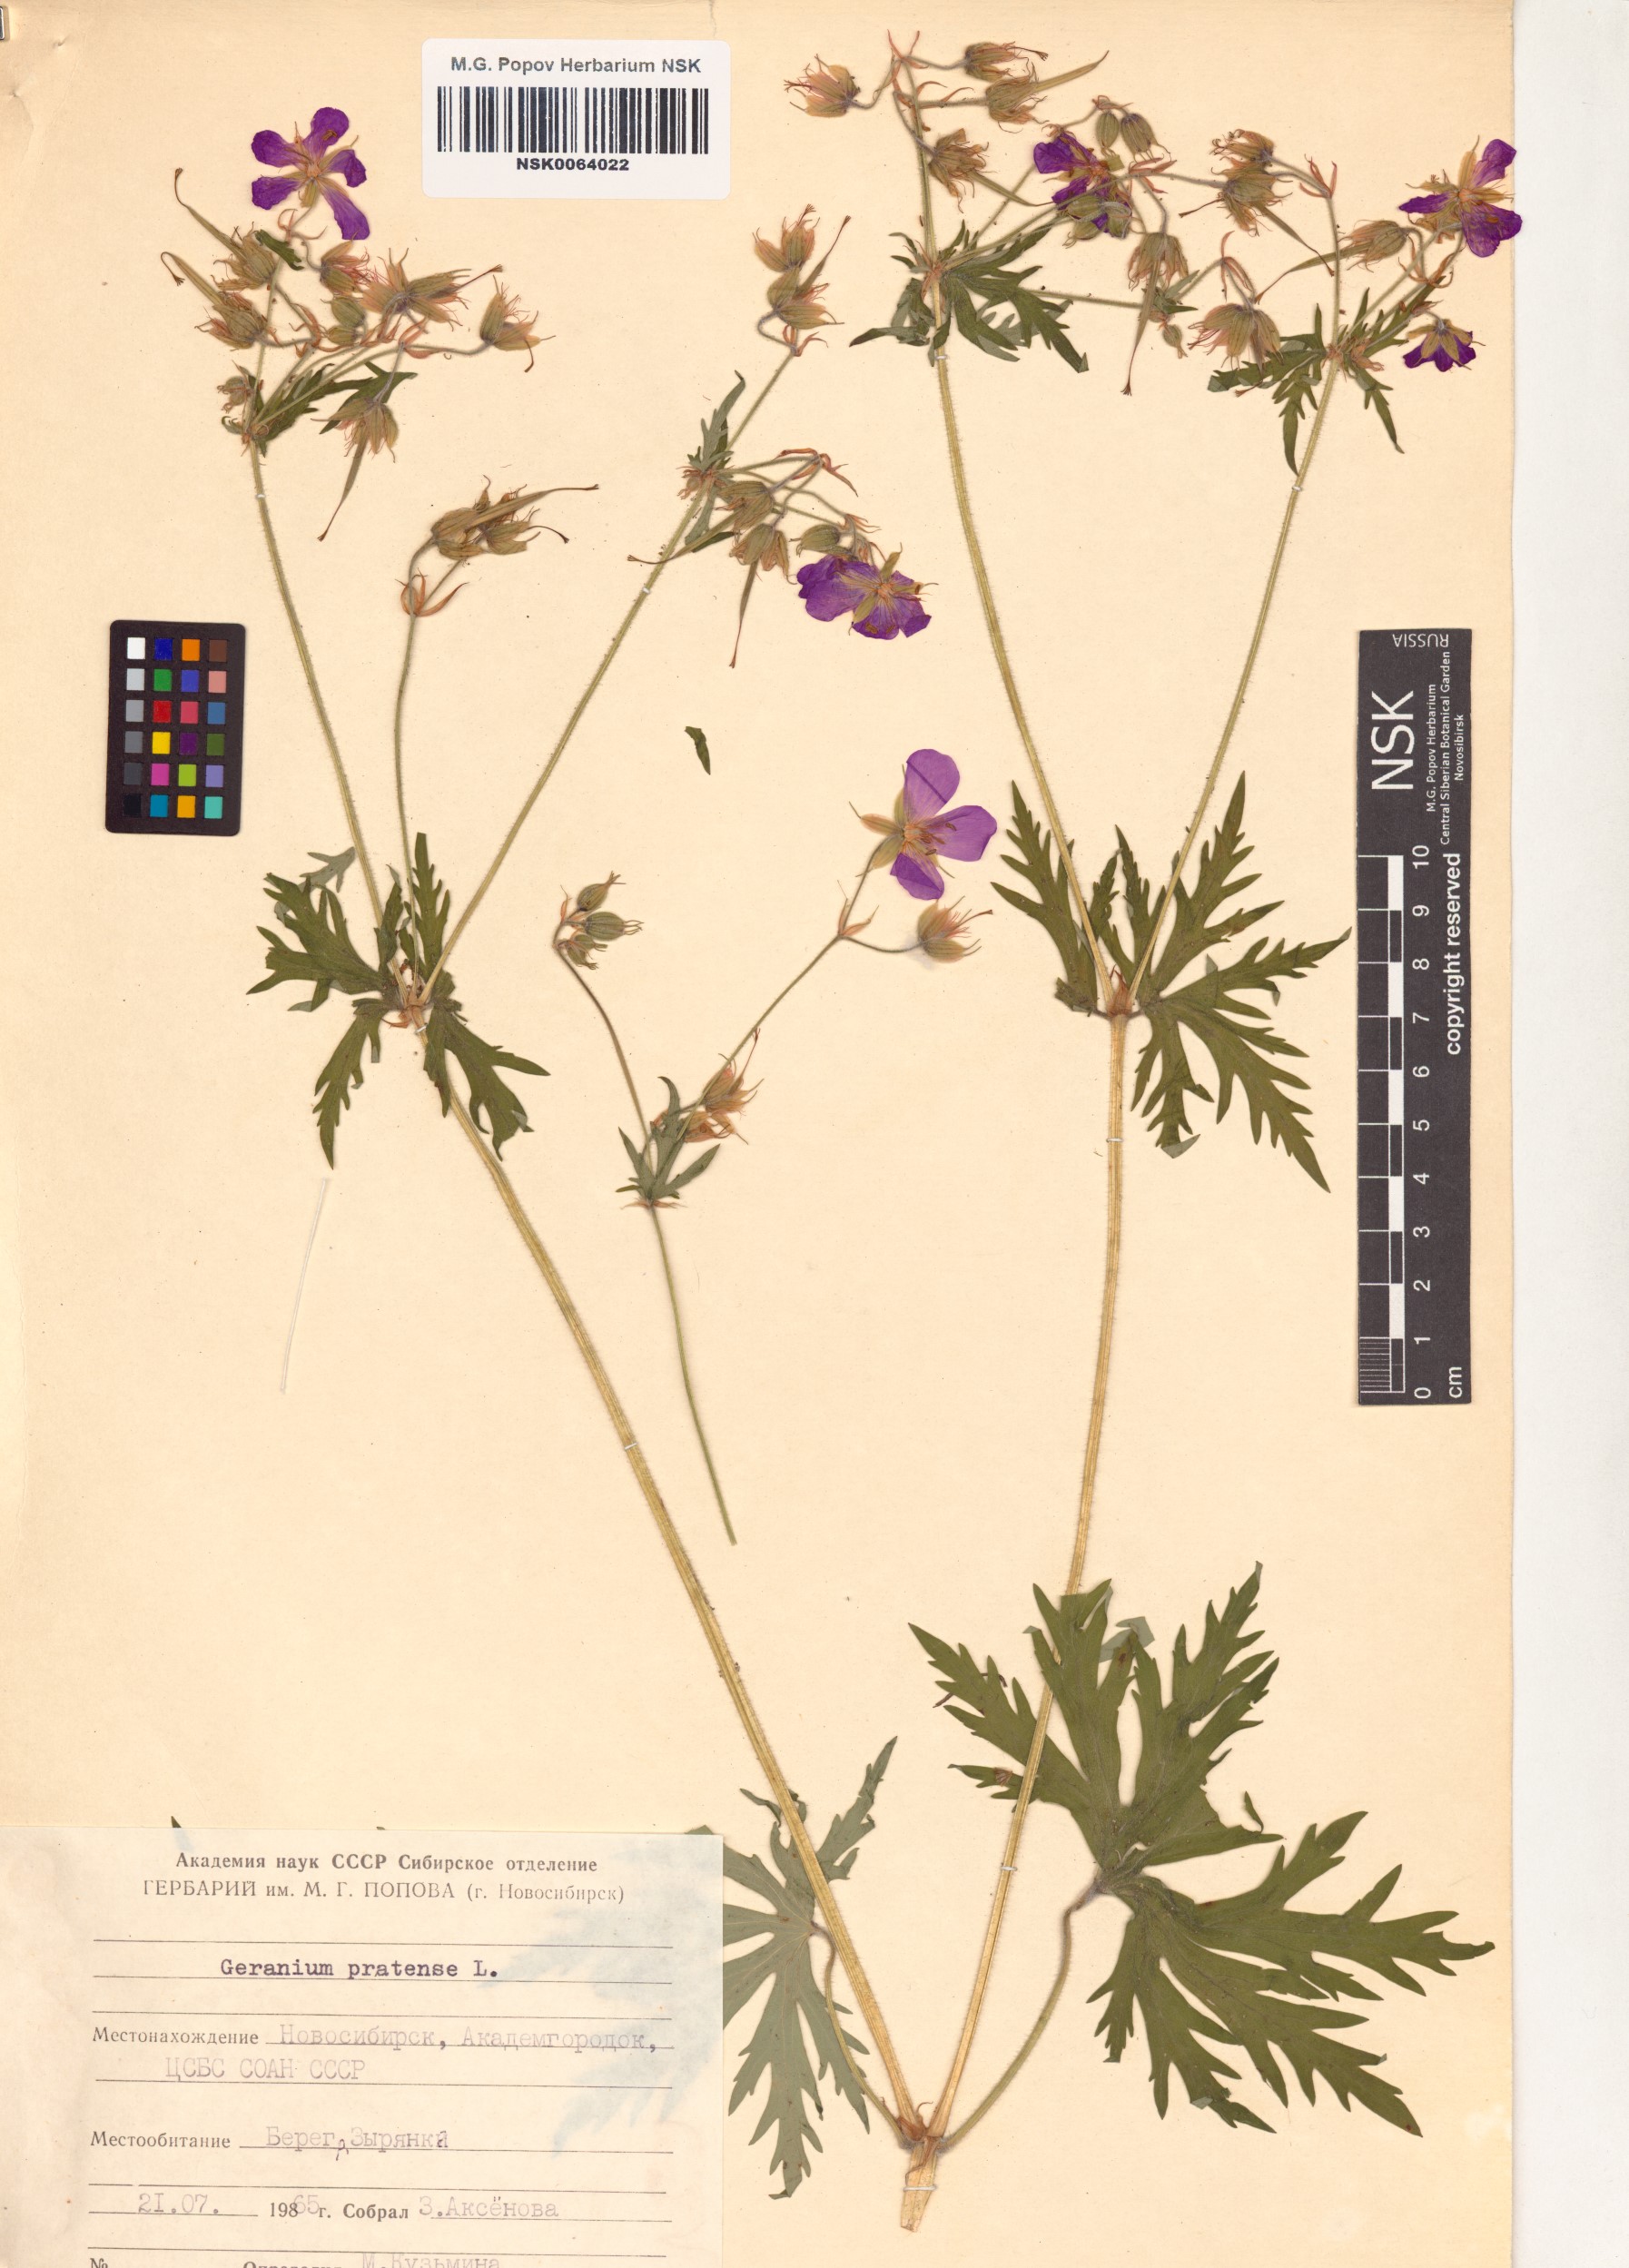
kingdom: Plantae
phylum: Tracheophyta
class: Magnoliopsida
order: Geraniales
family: Geraniaceae
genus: Geranium
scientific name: Geranium pratense
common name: Meadow crane's-bill
